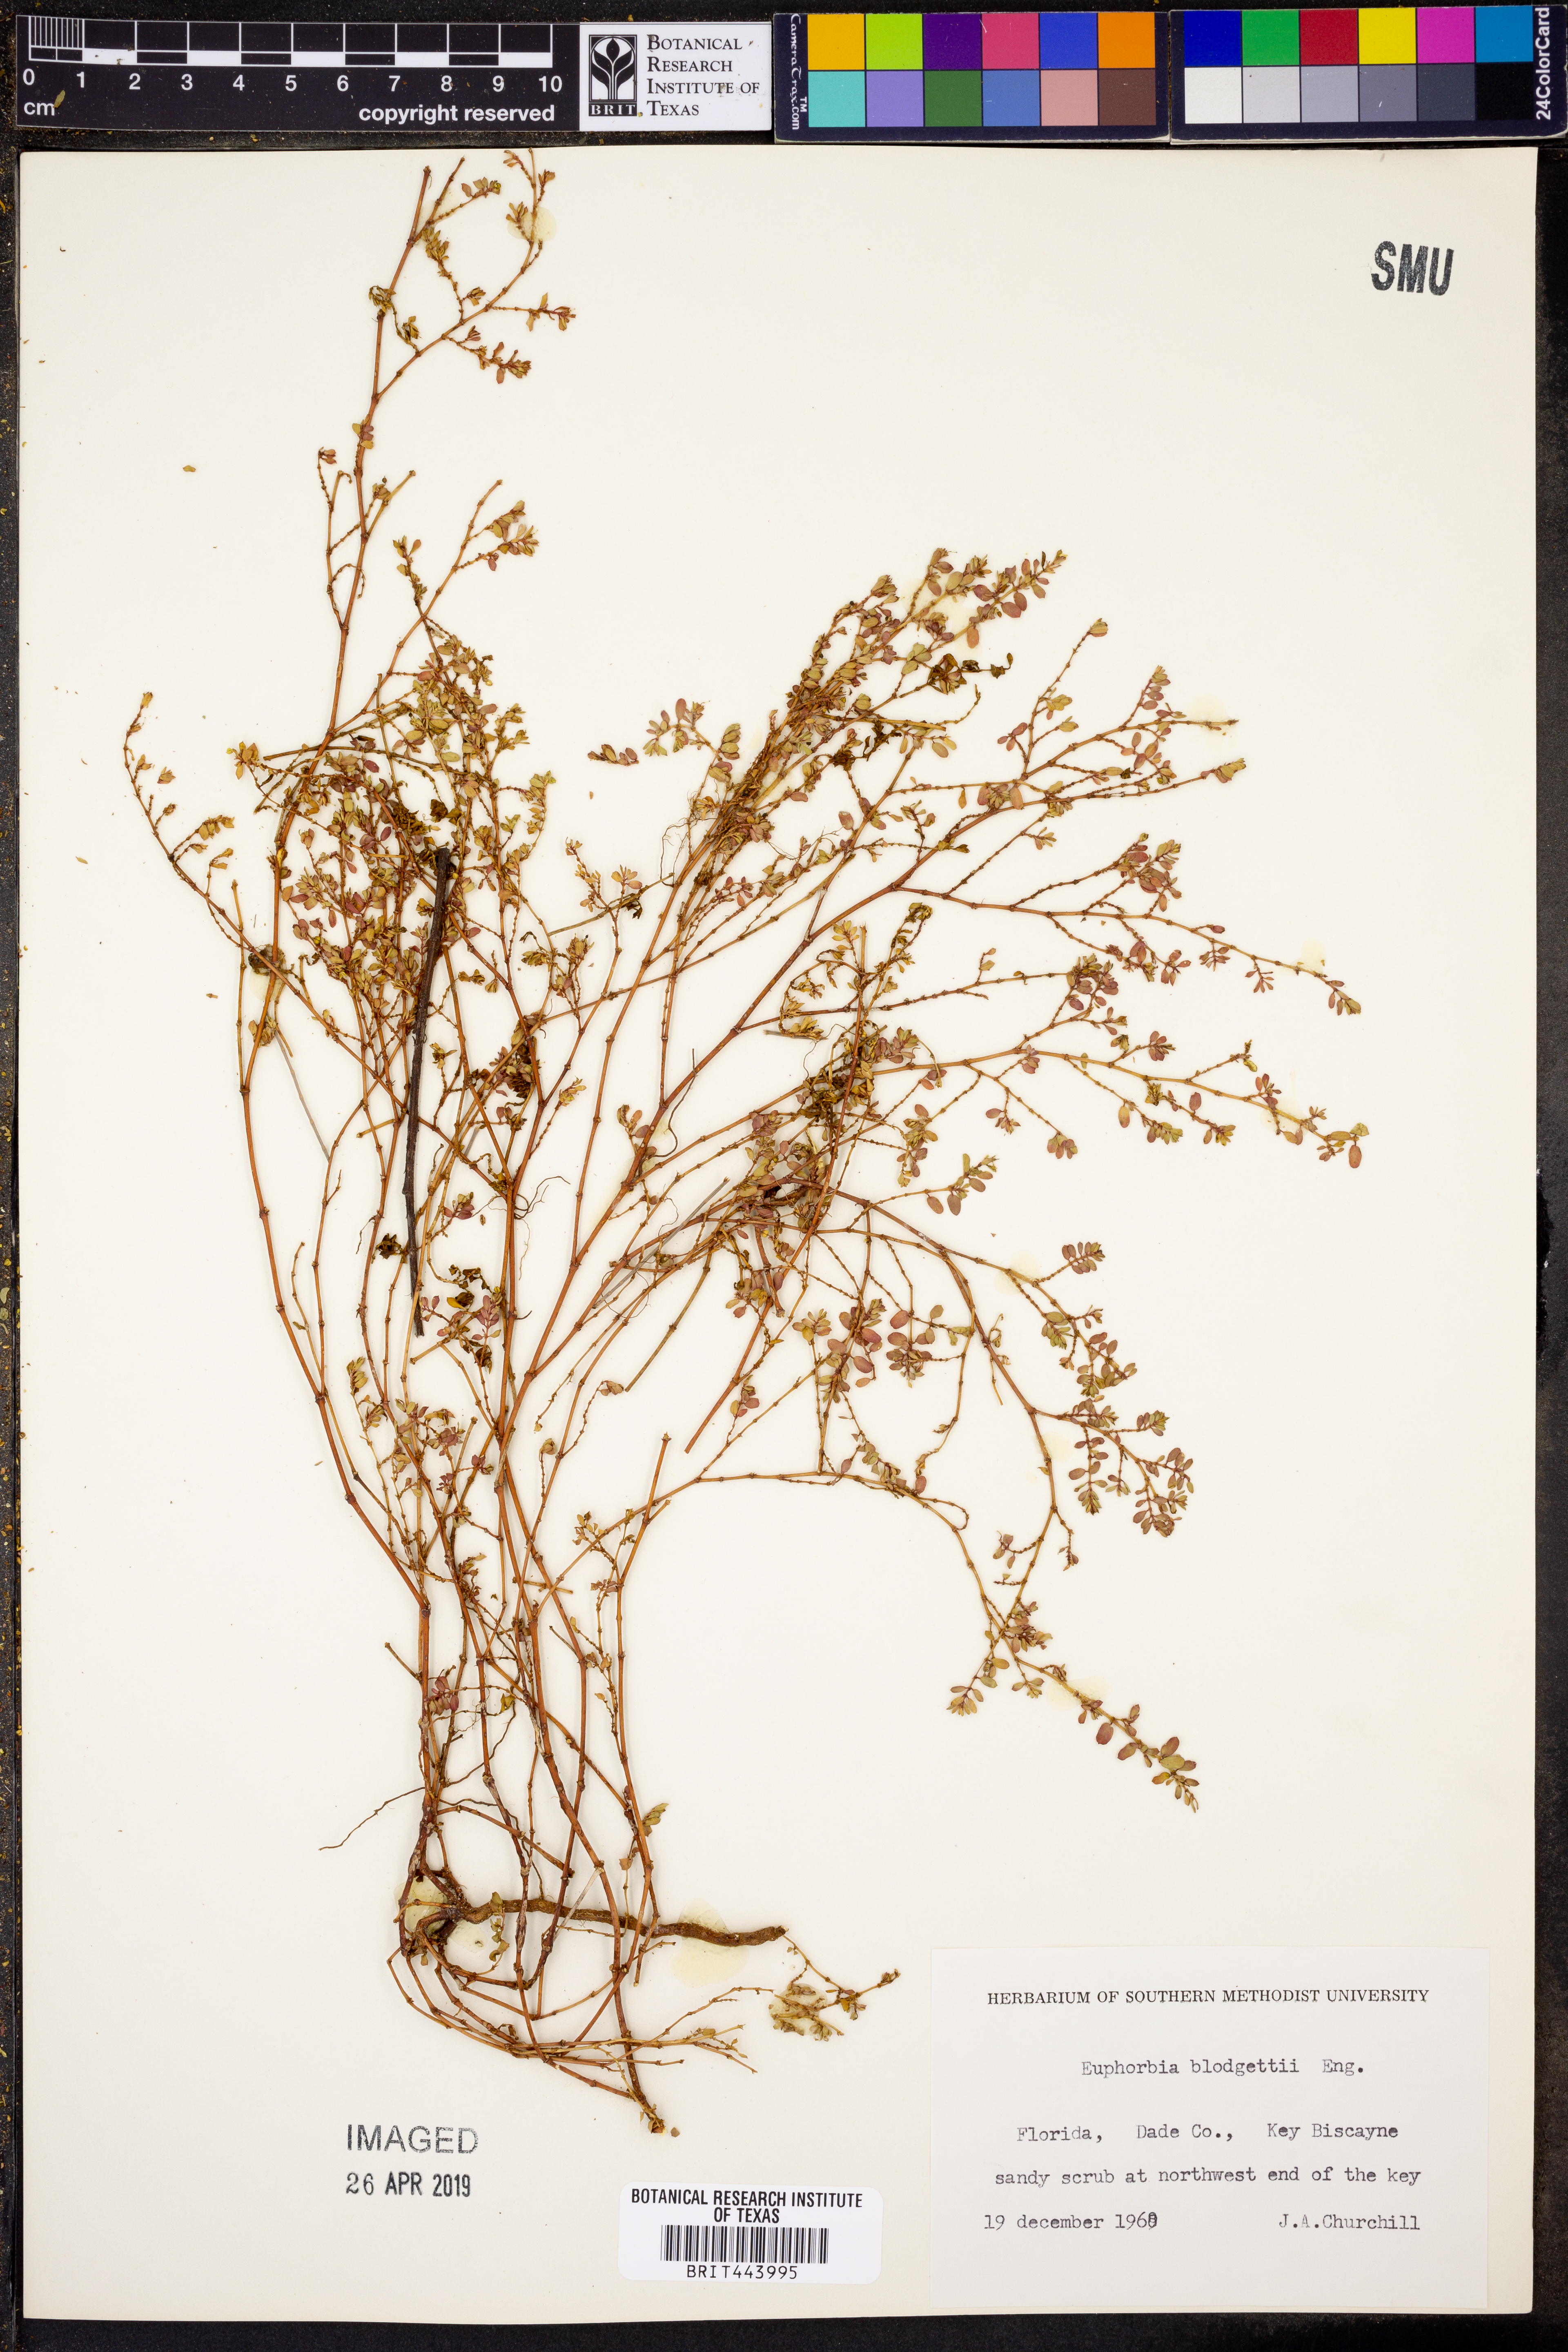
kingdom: Plantae
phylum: Tracheophyta
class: Magnoliopsida
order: Malpighiales
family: Euphorbiaceae
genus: Euphorbia
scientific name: Euphorbia blodgettii
